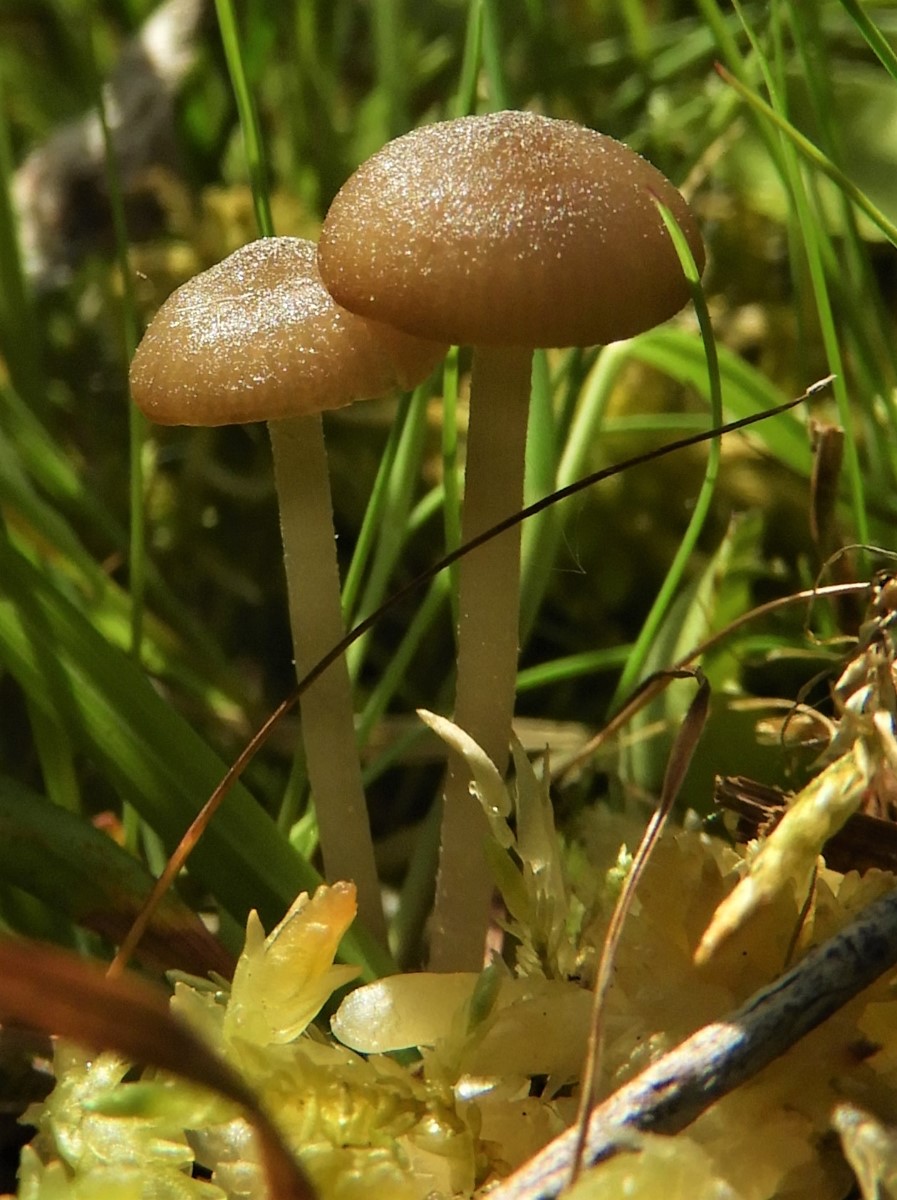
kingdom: Fungi
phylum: Basidiomycota
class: Agaricomycetes
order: Agaricales
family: Lyophyllaceae
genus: Sphagnurus
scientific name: Sphagnurus paluster
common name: tørvemos-gråblad
